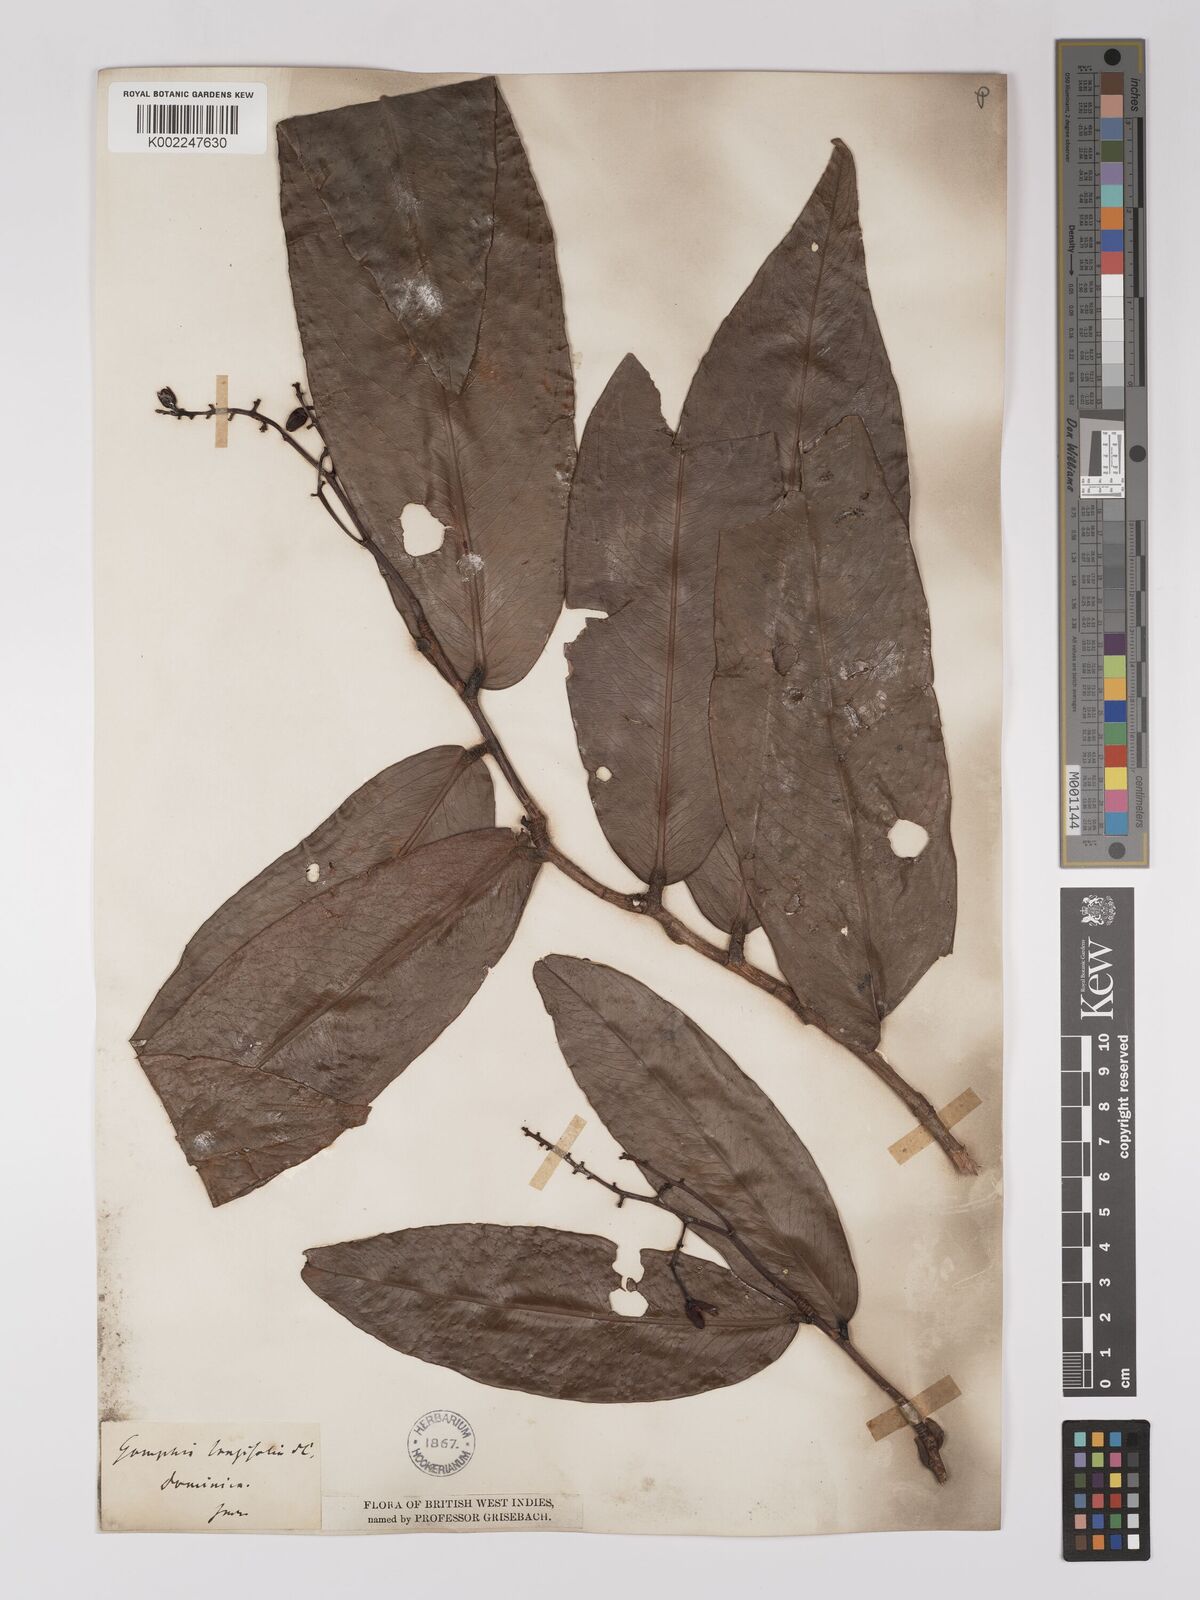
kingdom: Plantae
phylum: Tracheophyta
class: Magnoliopsida
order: Malpighiales
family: Ochnaceae
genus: Ouratea
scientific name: Ouratea longifolia
